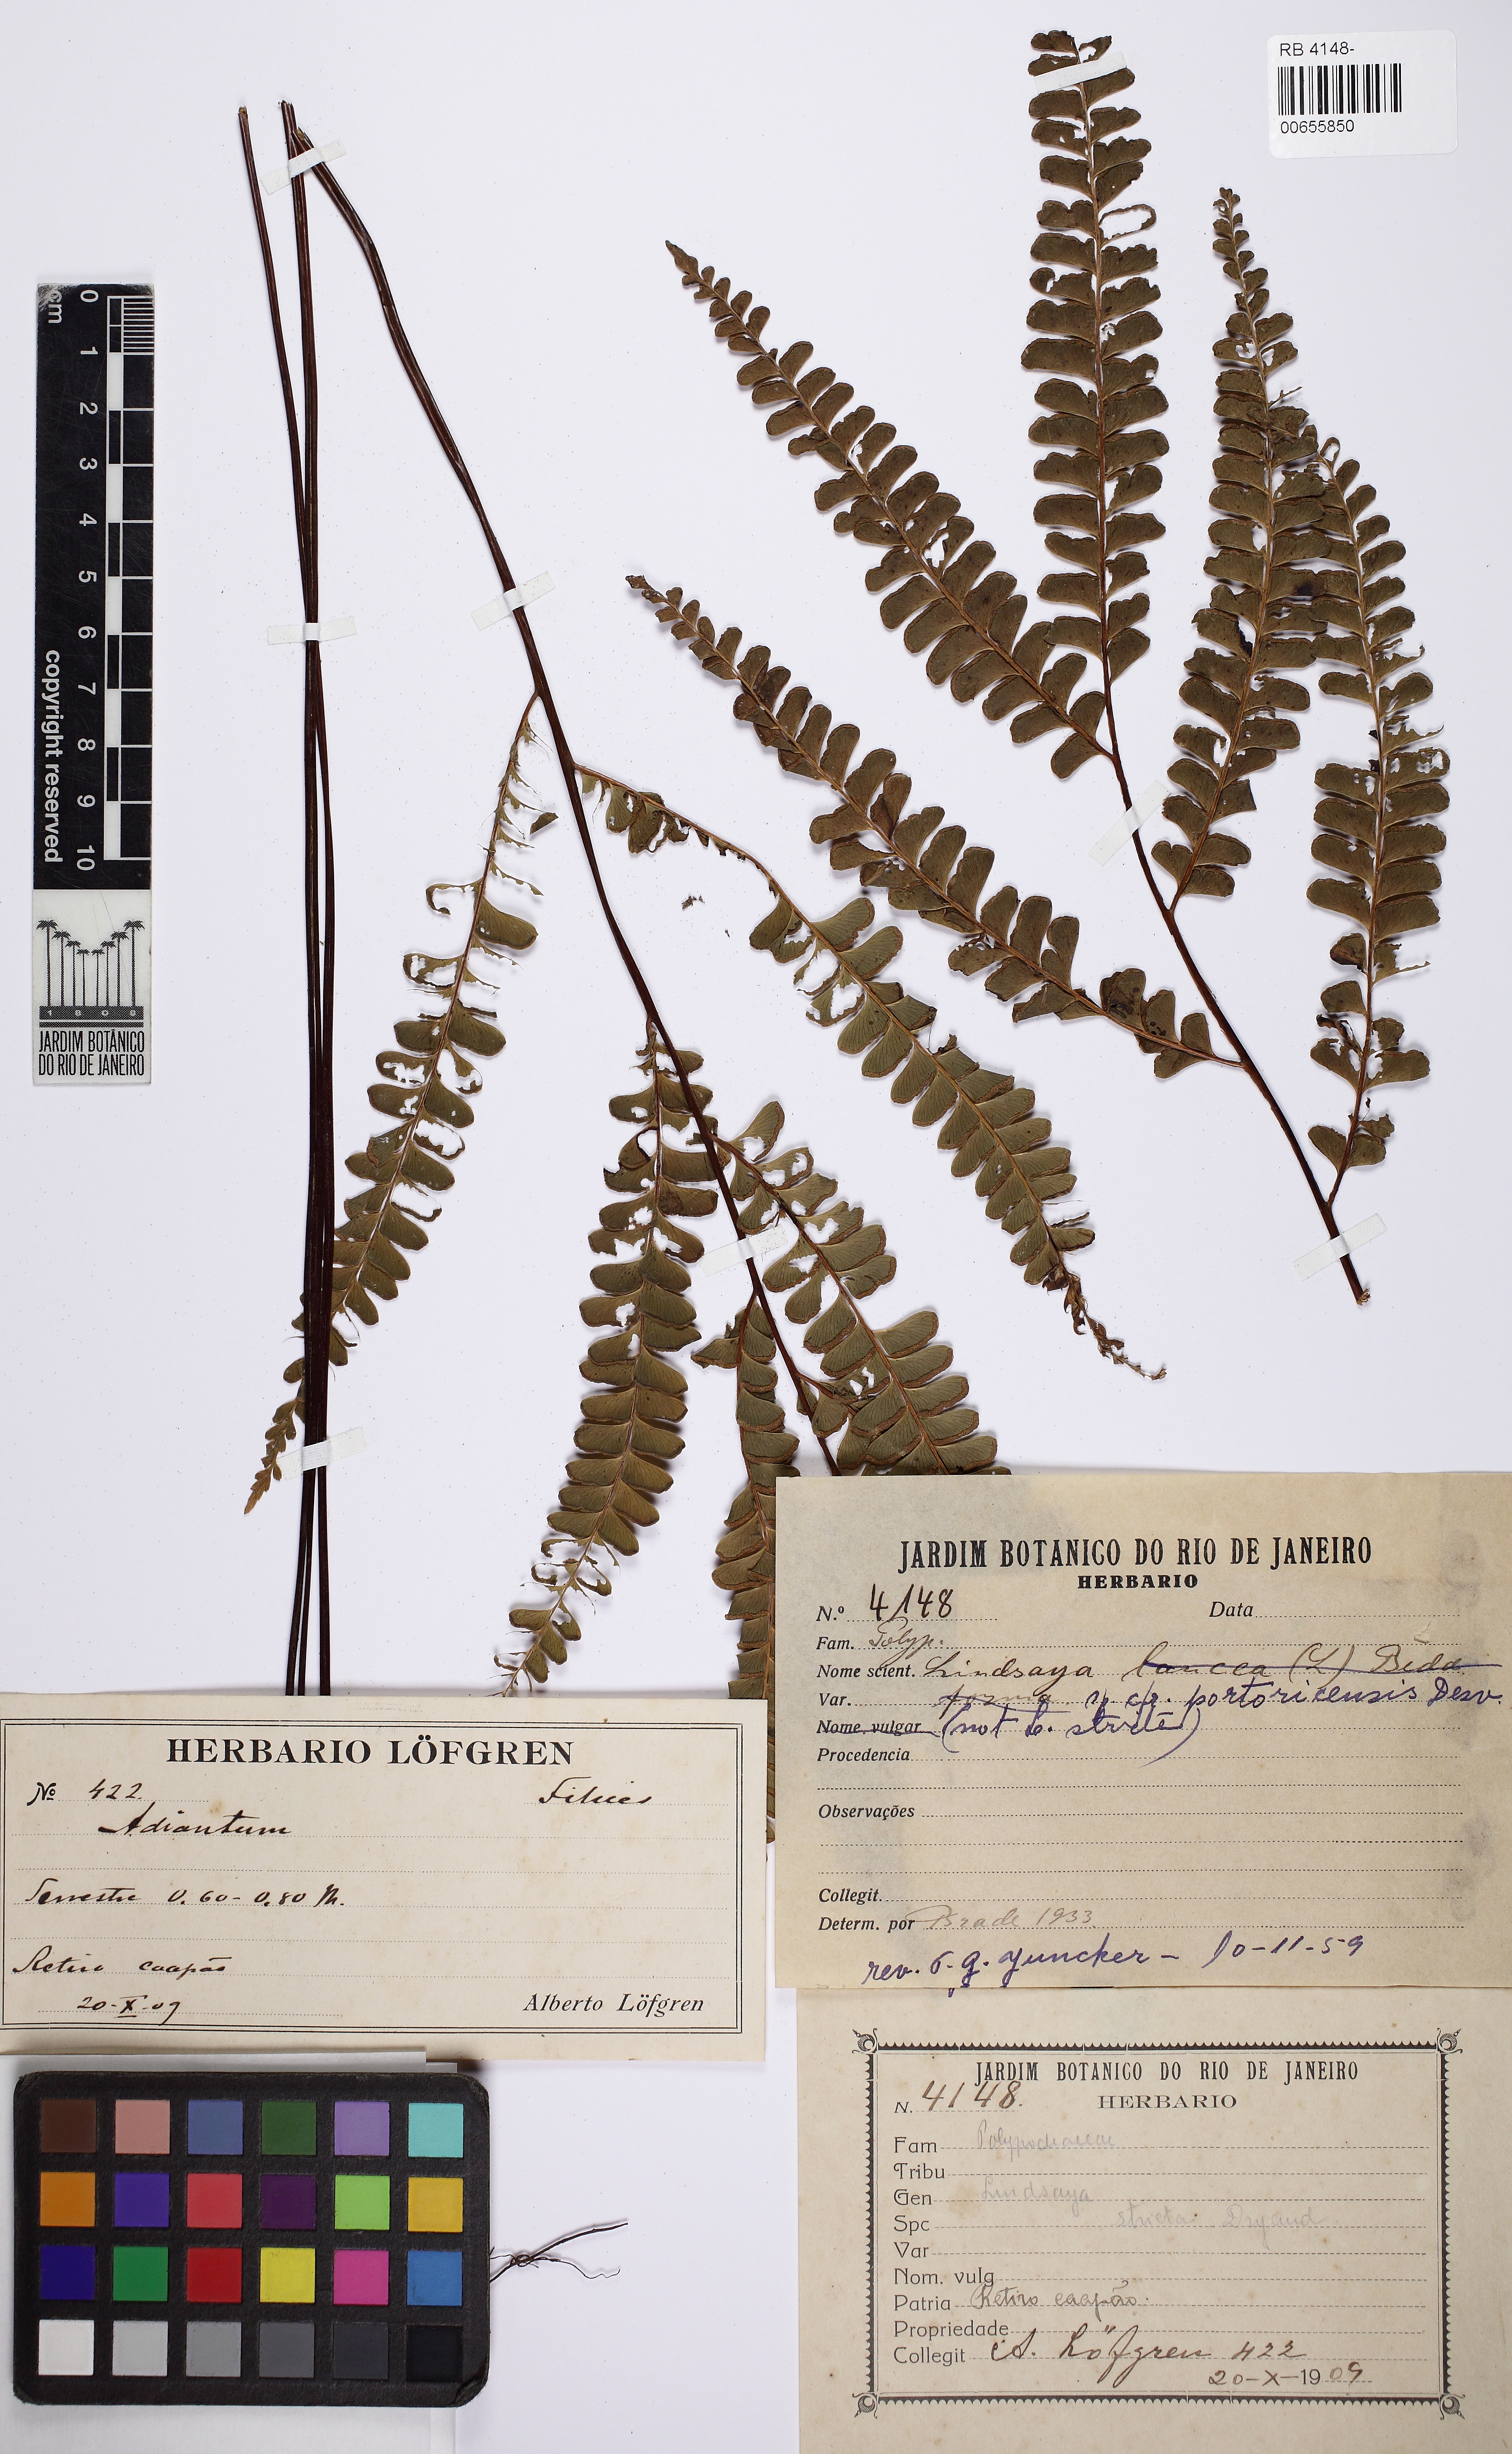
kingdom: Plantae
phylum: Tracheophyta
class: Polypodiopsida
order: Polypodiales
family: Lindsaeaceae
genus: Lindsaea
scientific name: Lindsaea portoricensis
